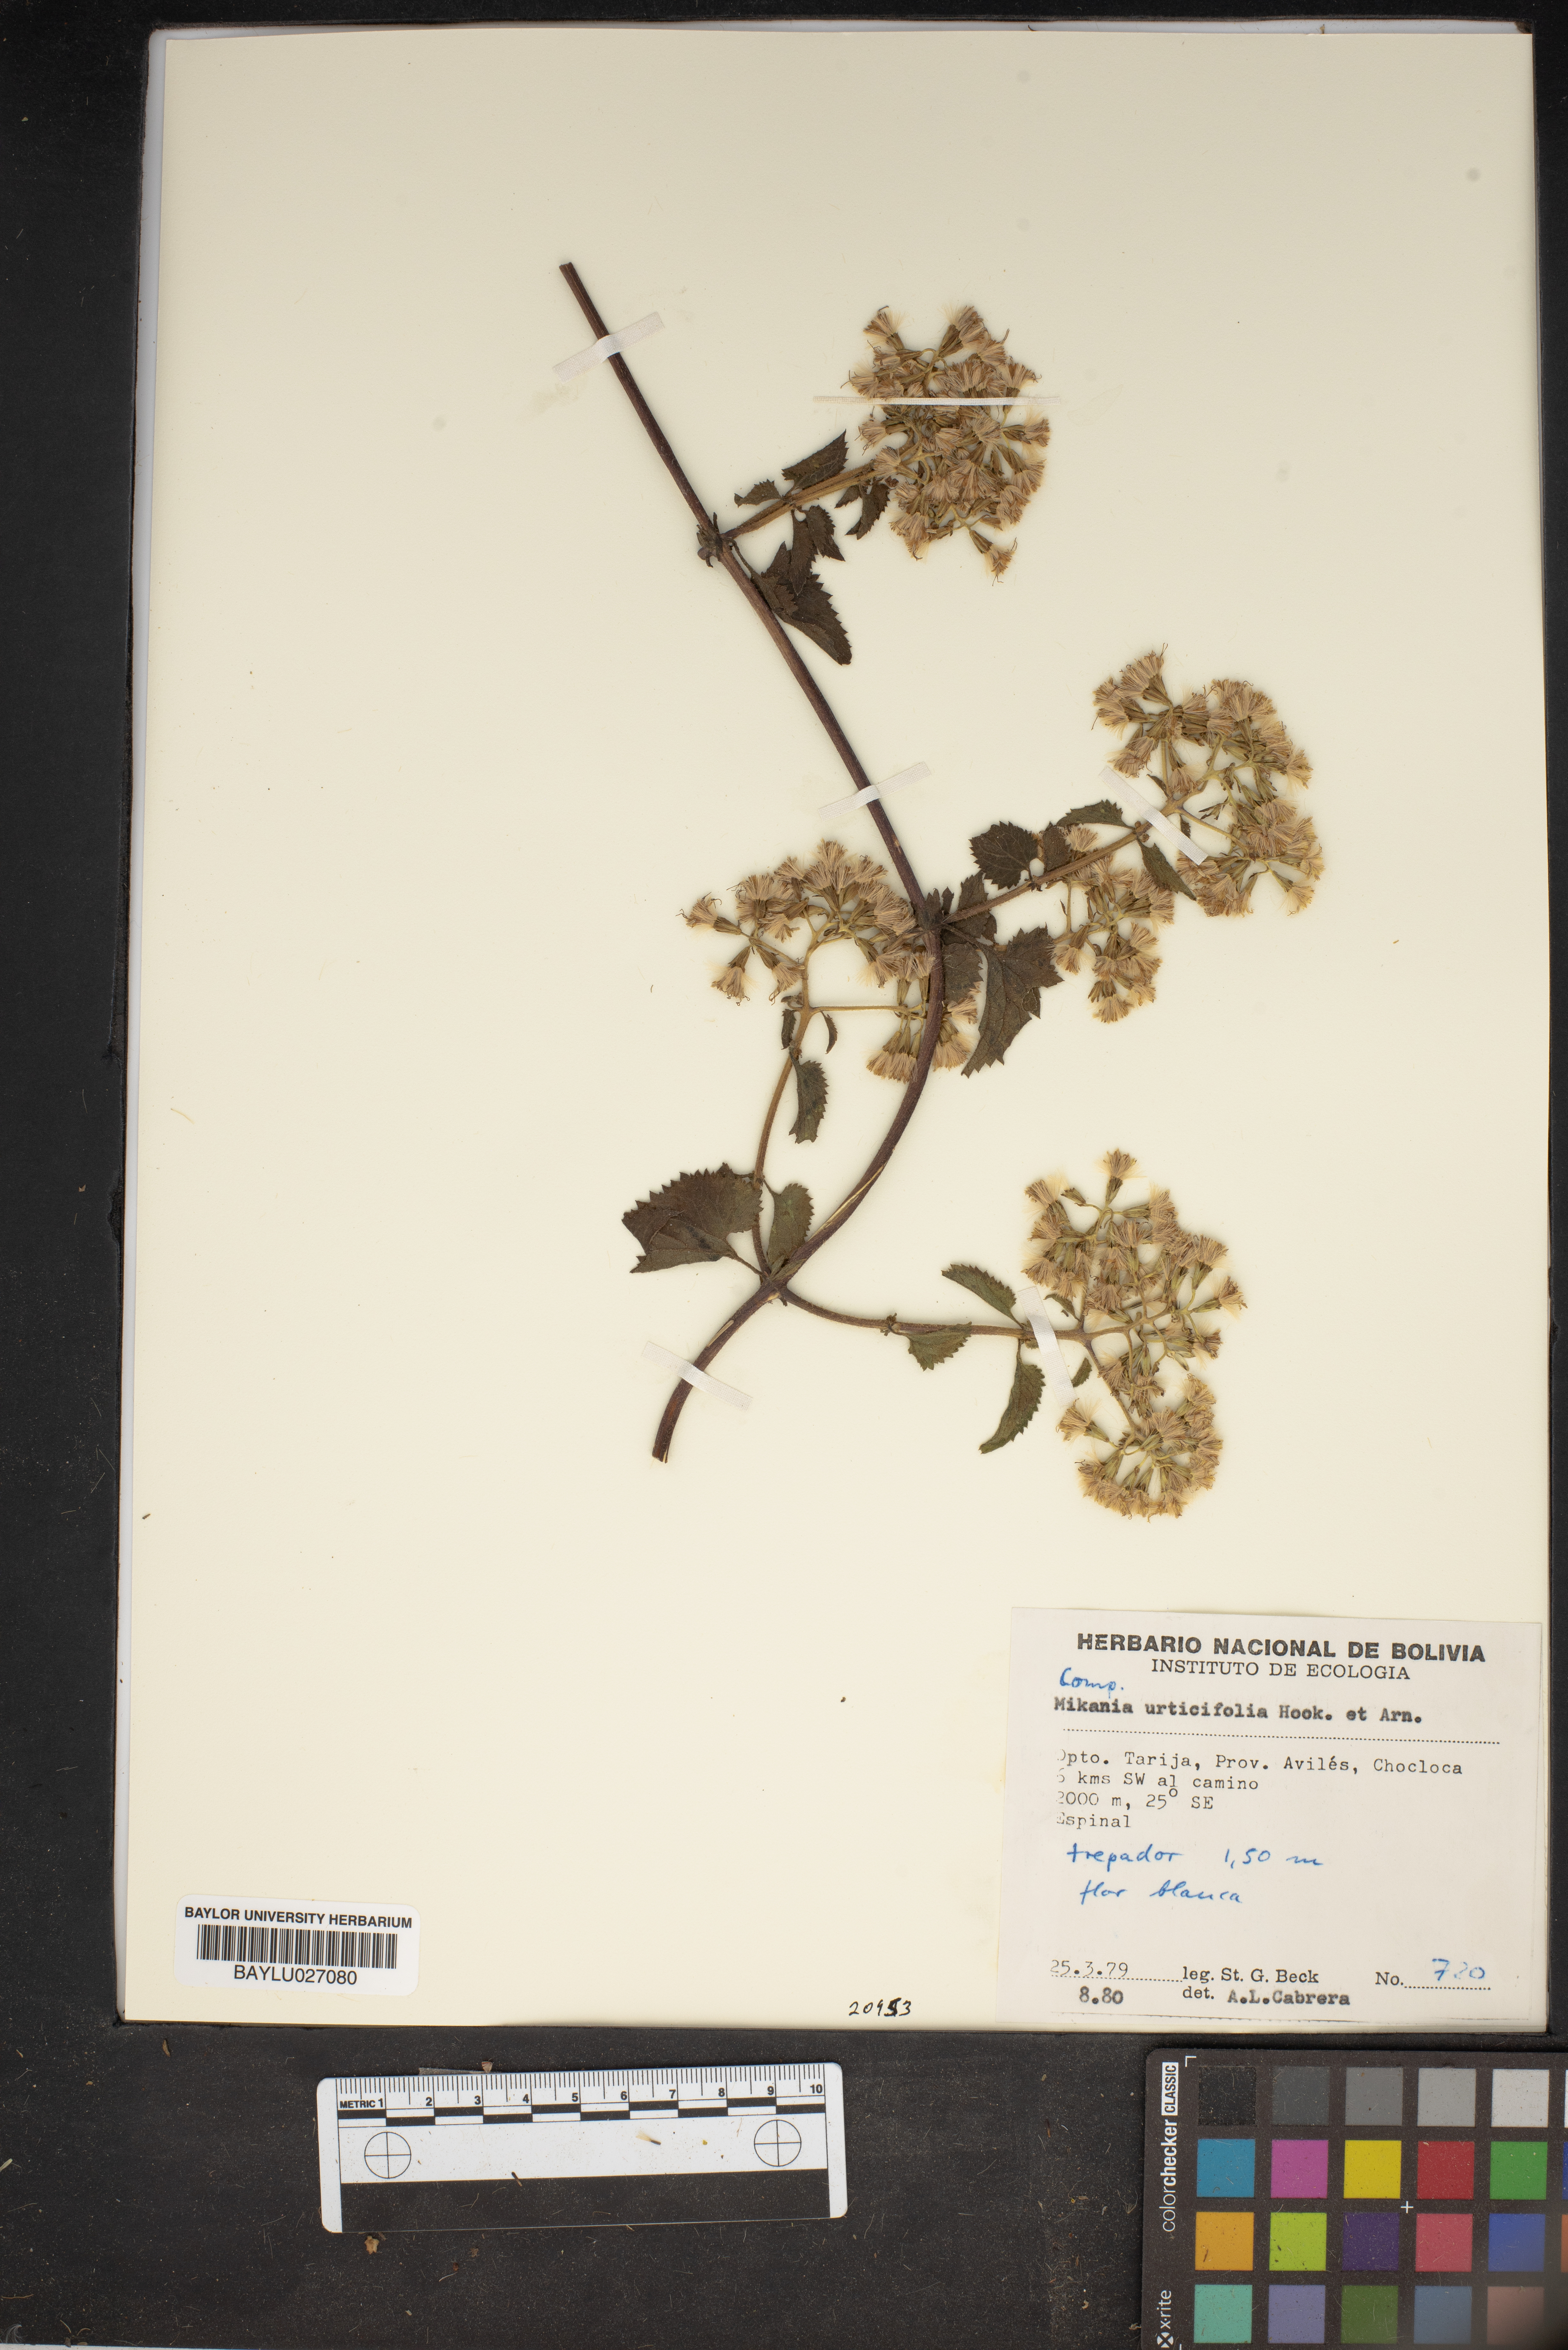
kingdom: Plantae
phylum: Tracheophyta
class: Magnoliopsida
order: Asterales
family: Asteraceae
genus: Mikania
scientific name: Mikania urticifolia
